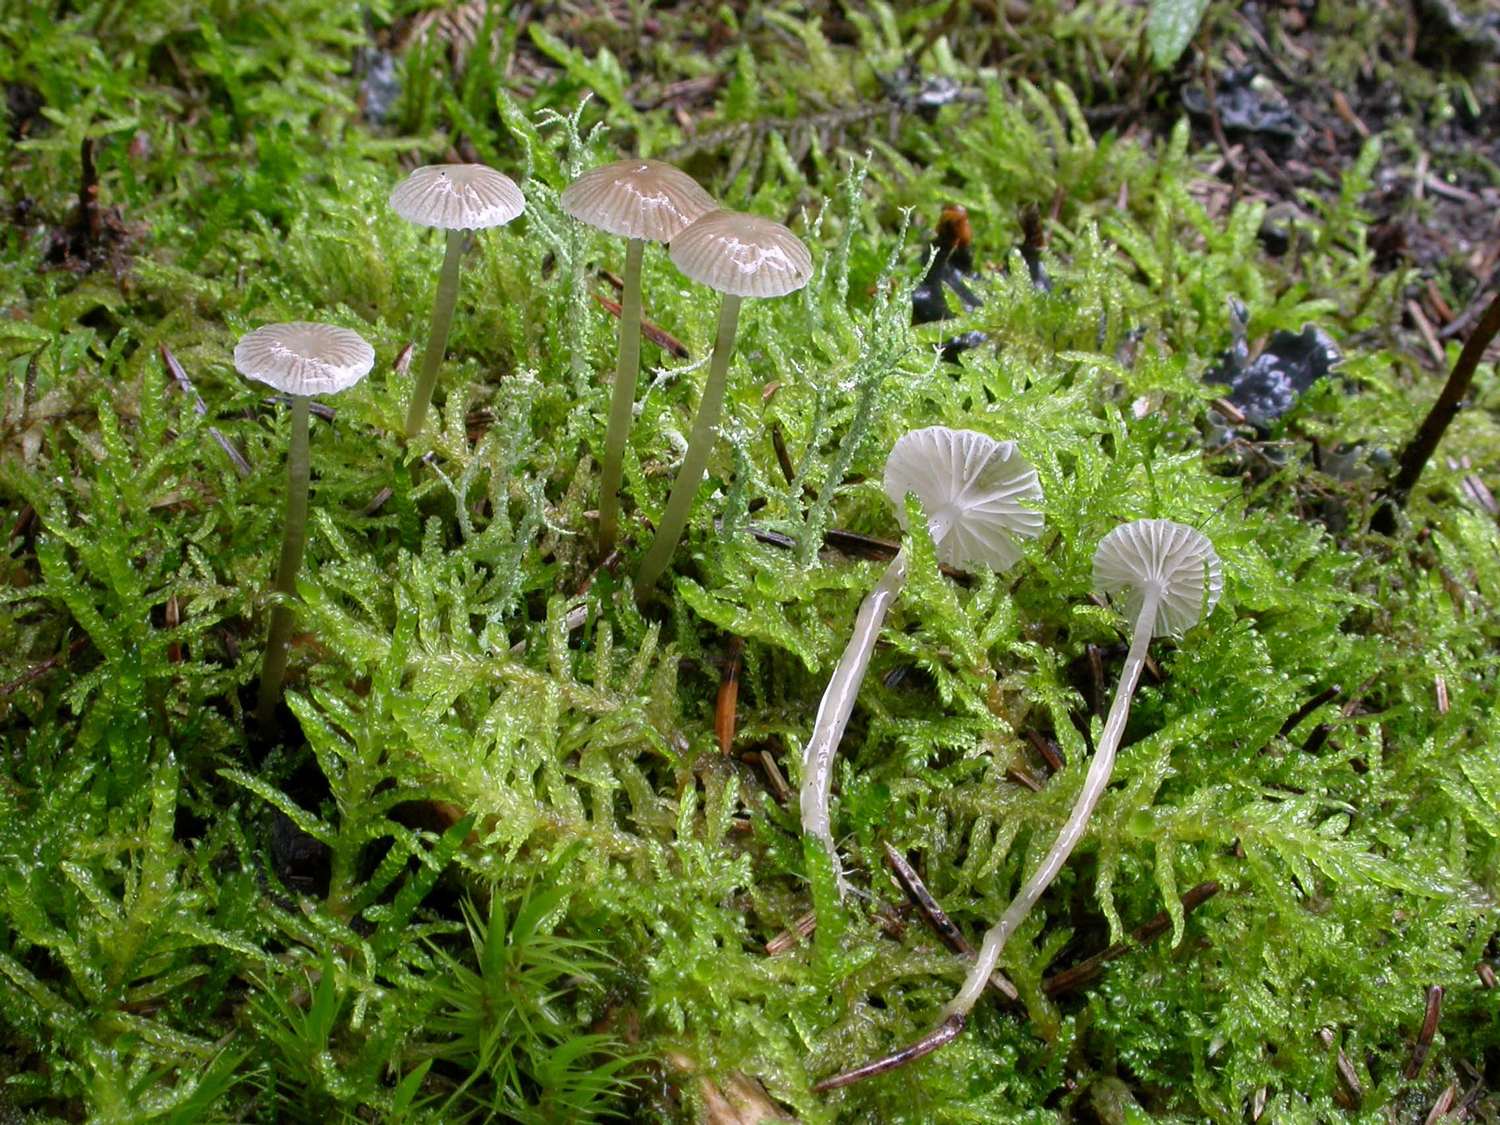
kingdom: Fungi
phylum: Basidiomycota
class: Agaricomycetes
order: Agaricales
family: Mycenaceae
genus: Mycena
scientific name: Mycena vulgaris
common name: klæbrig huesvamp
